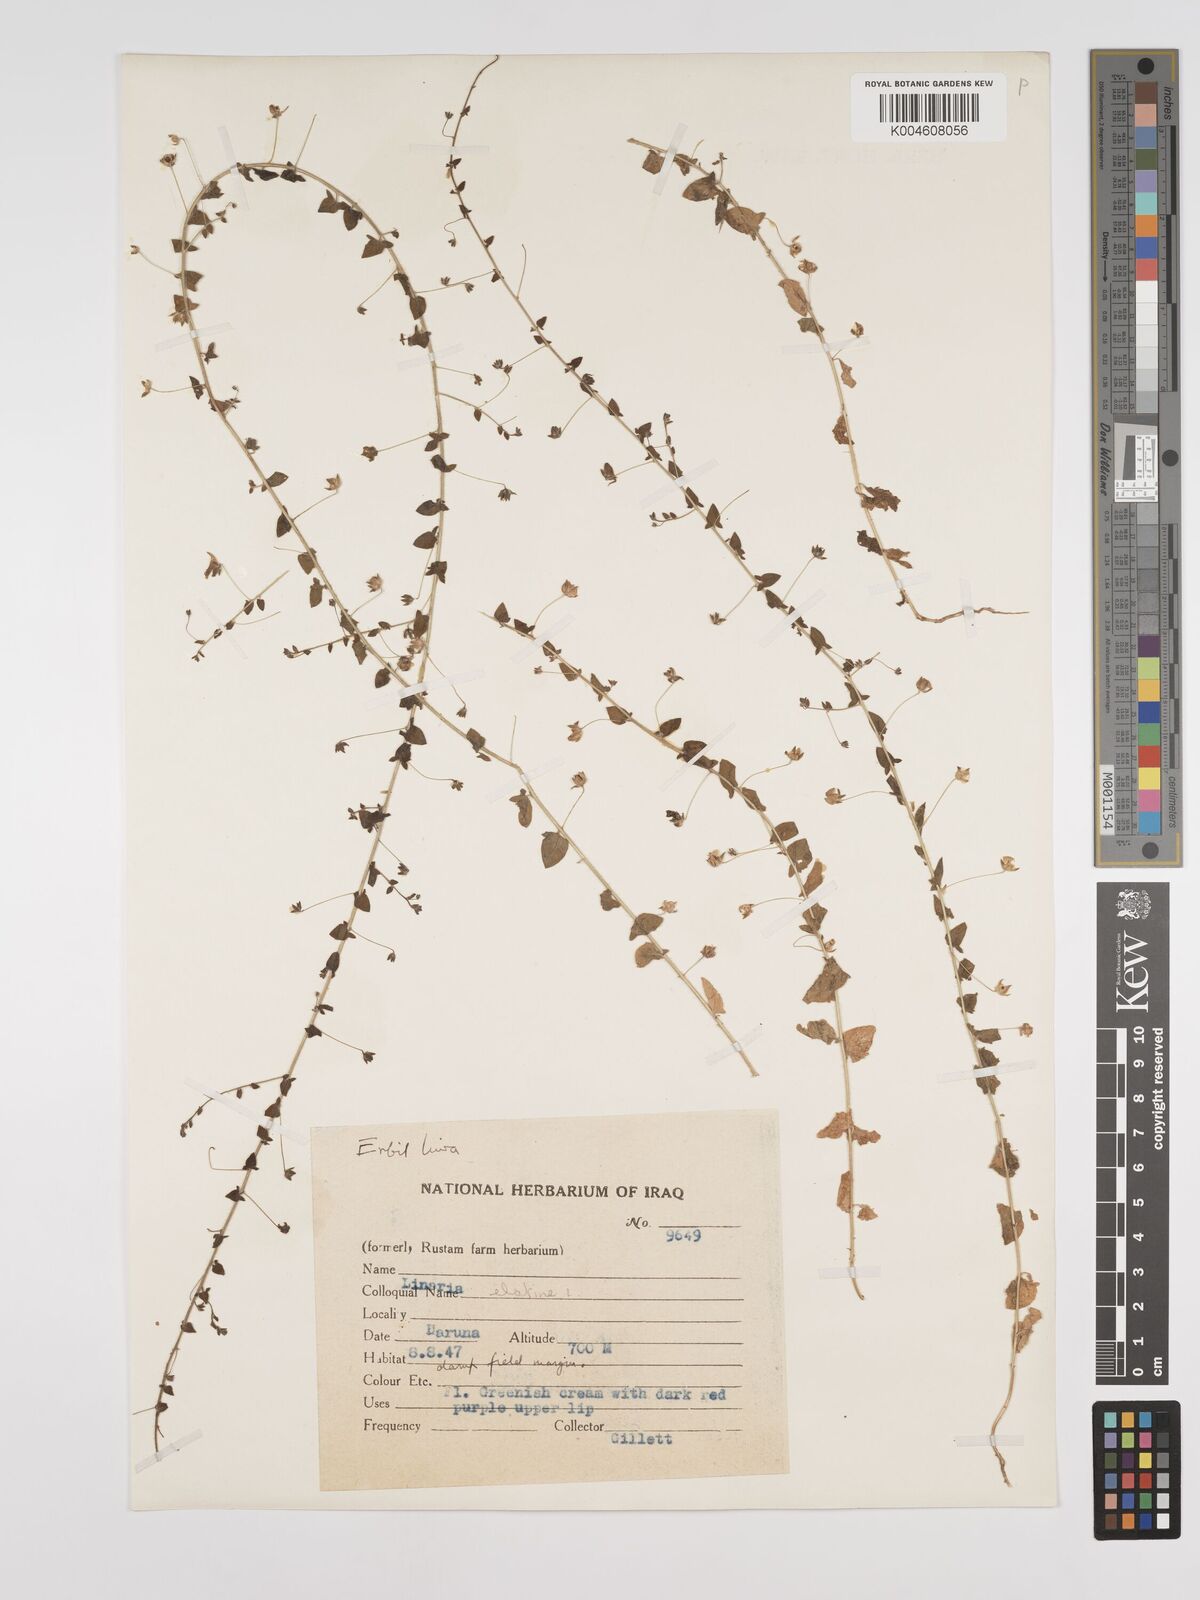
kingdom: Plantae
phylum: Tracheophyta
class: Magnoliopsida
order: Lamiales
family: Plantaginaceae
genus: Kickxia
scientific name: Kickxia elatine
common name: Sharp-leaved fluellen
